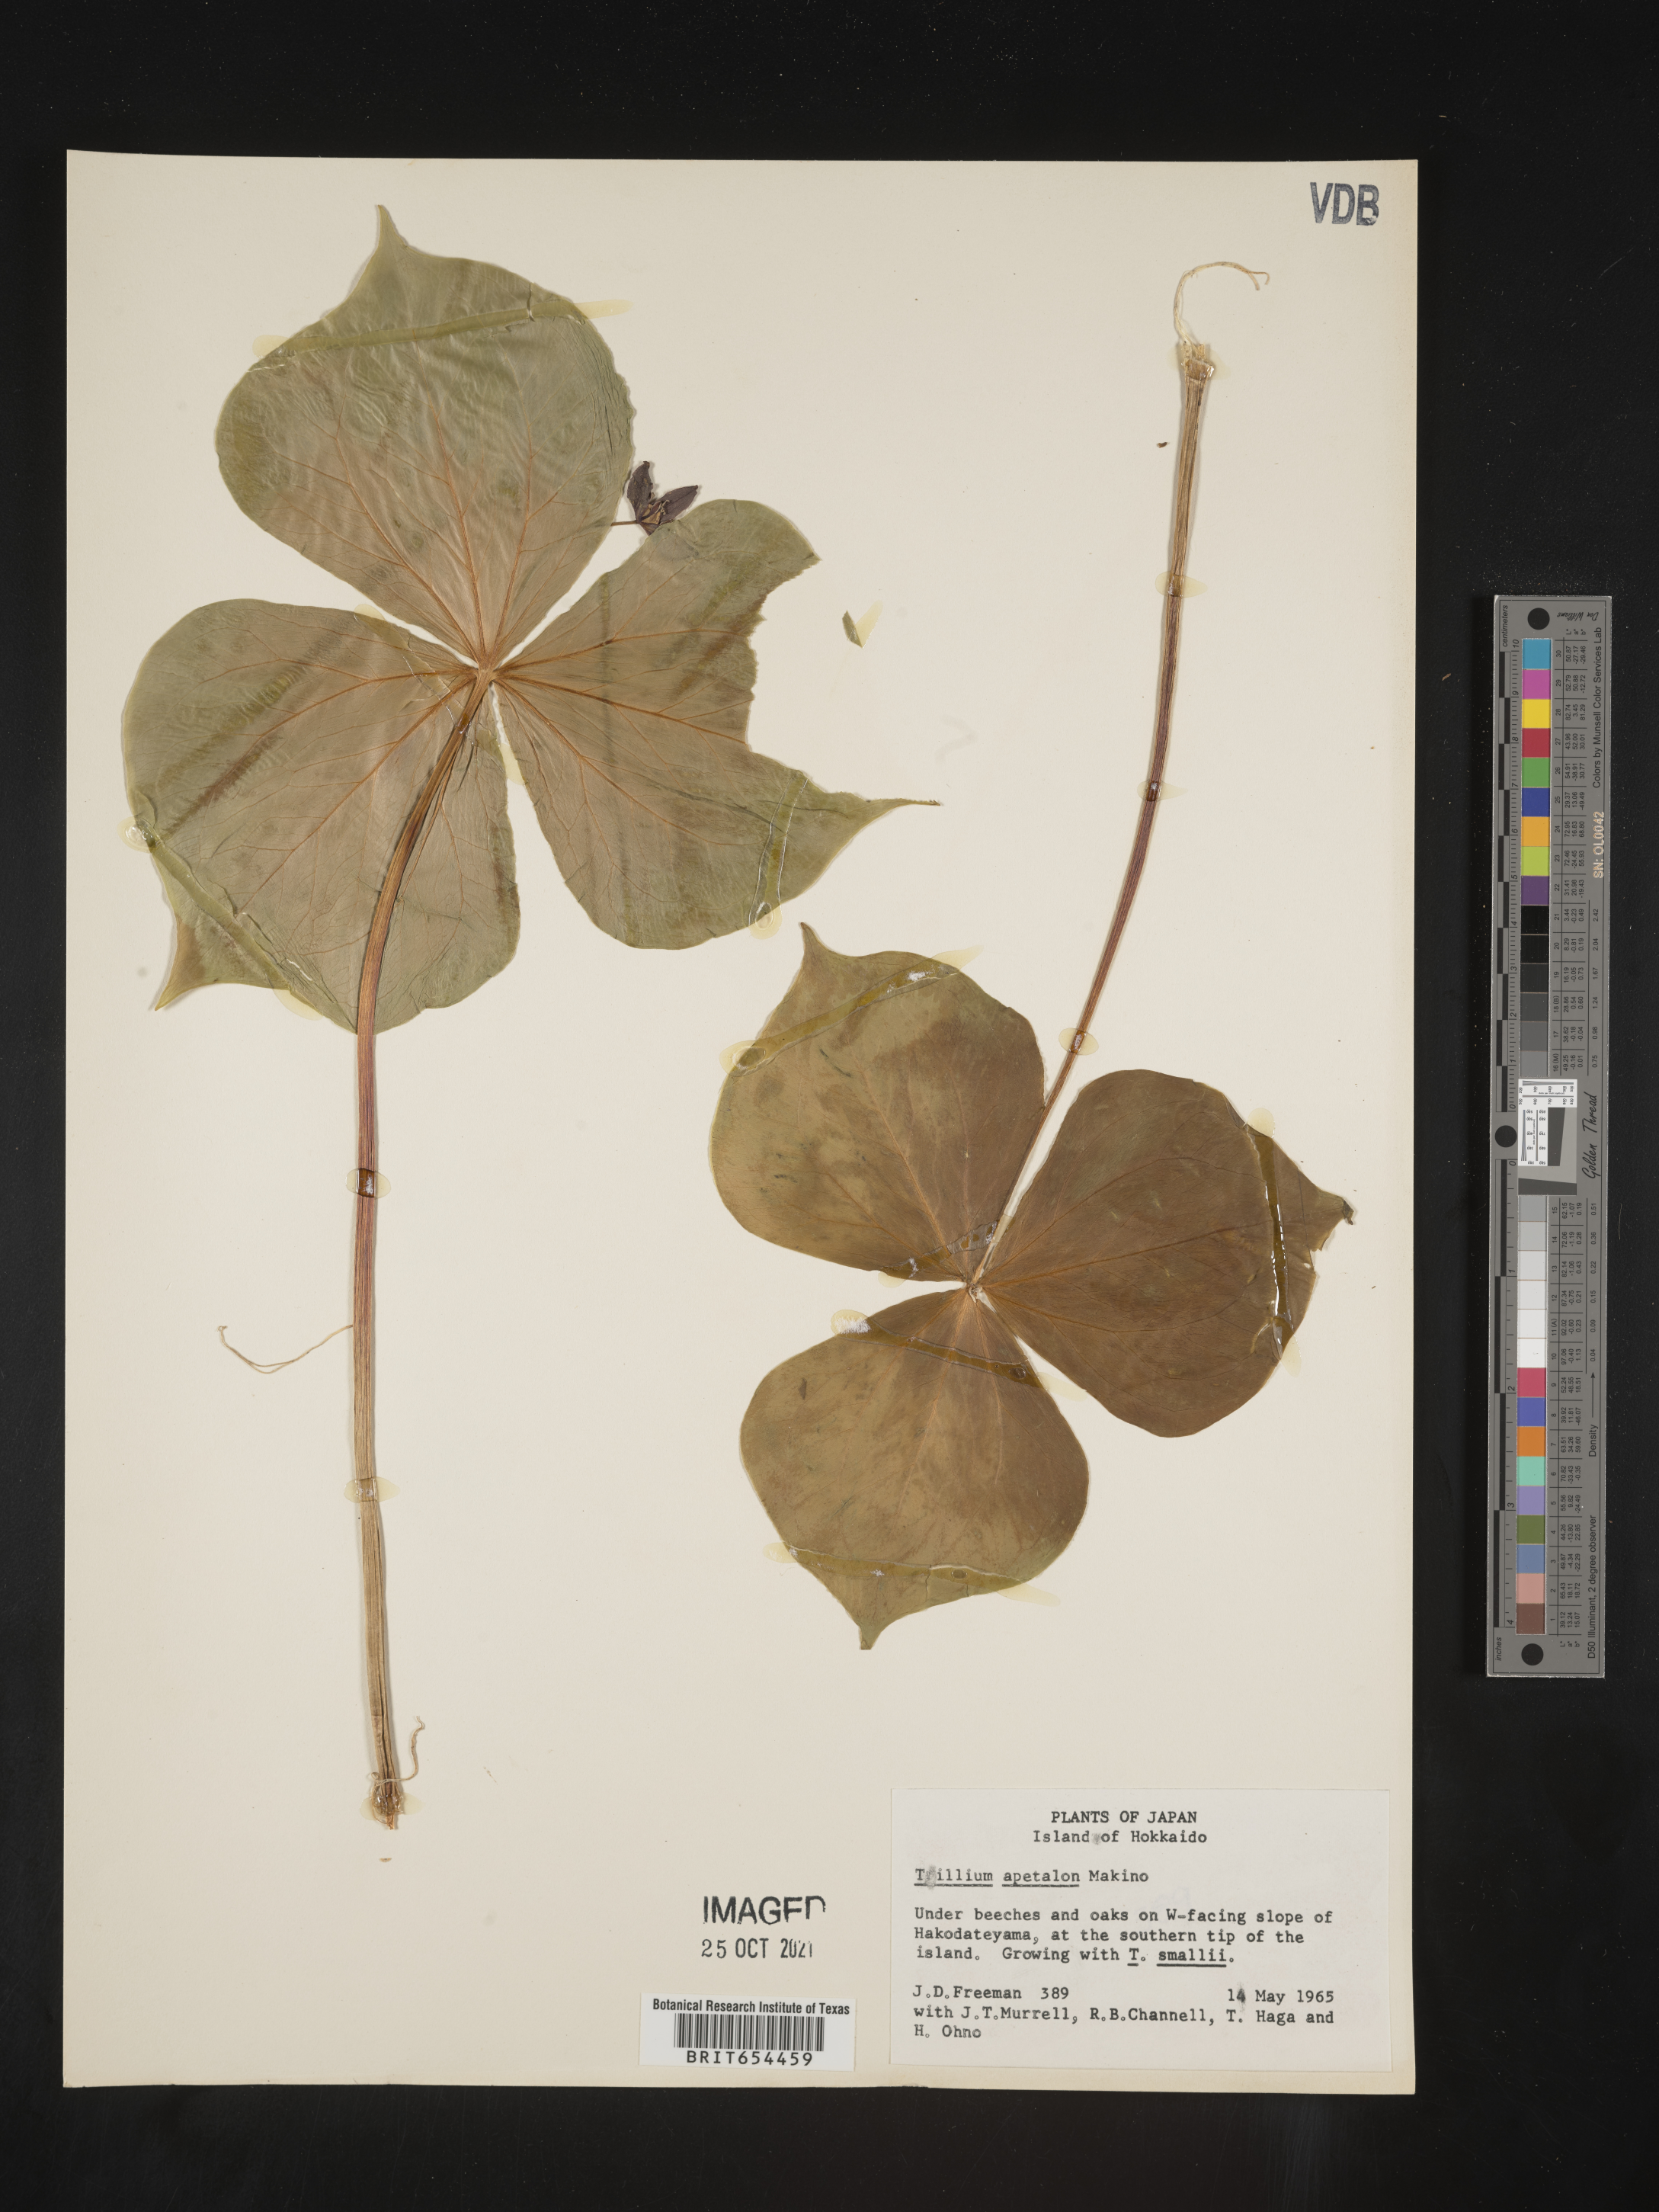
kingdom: Plantae
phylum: Tracheophyta
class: Liliopsida
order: Liliales
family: Melanthiaceae
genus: Trillium
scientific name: Trillium
